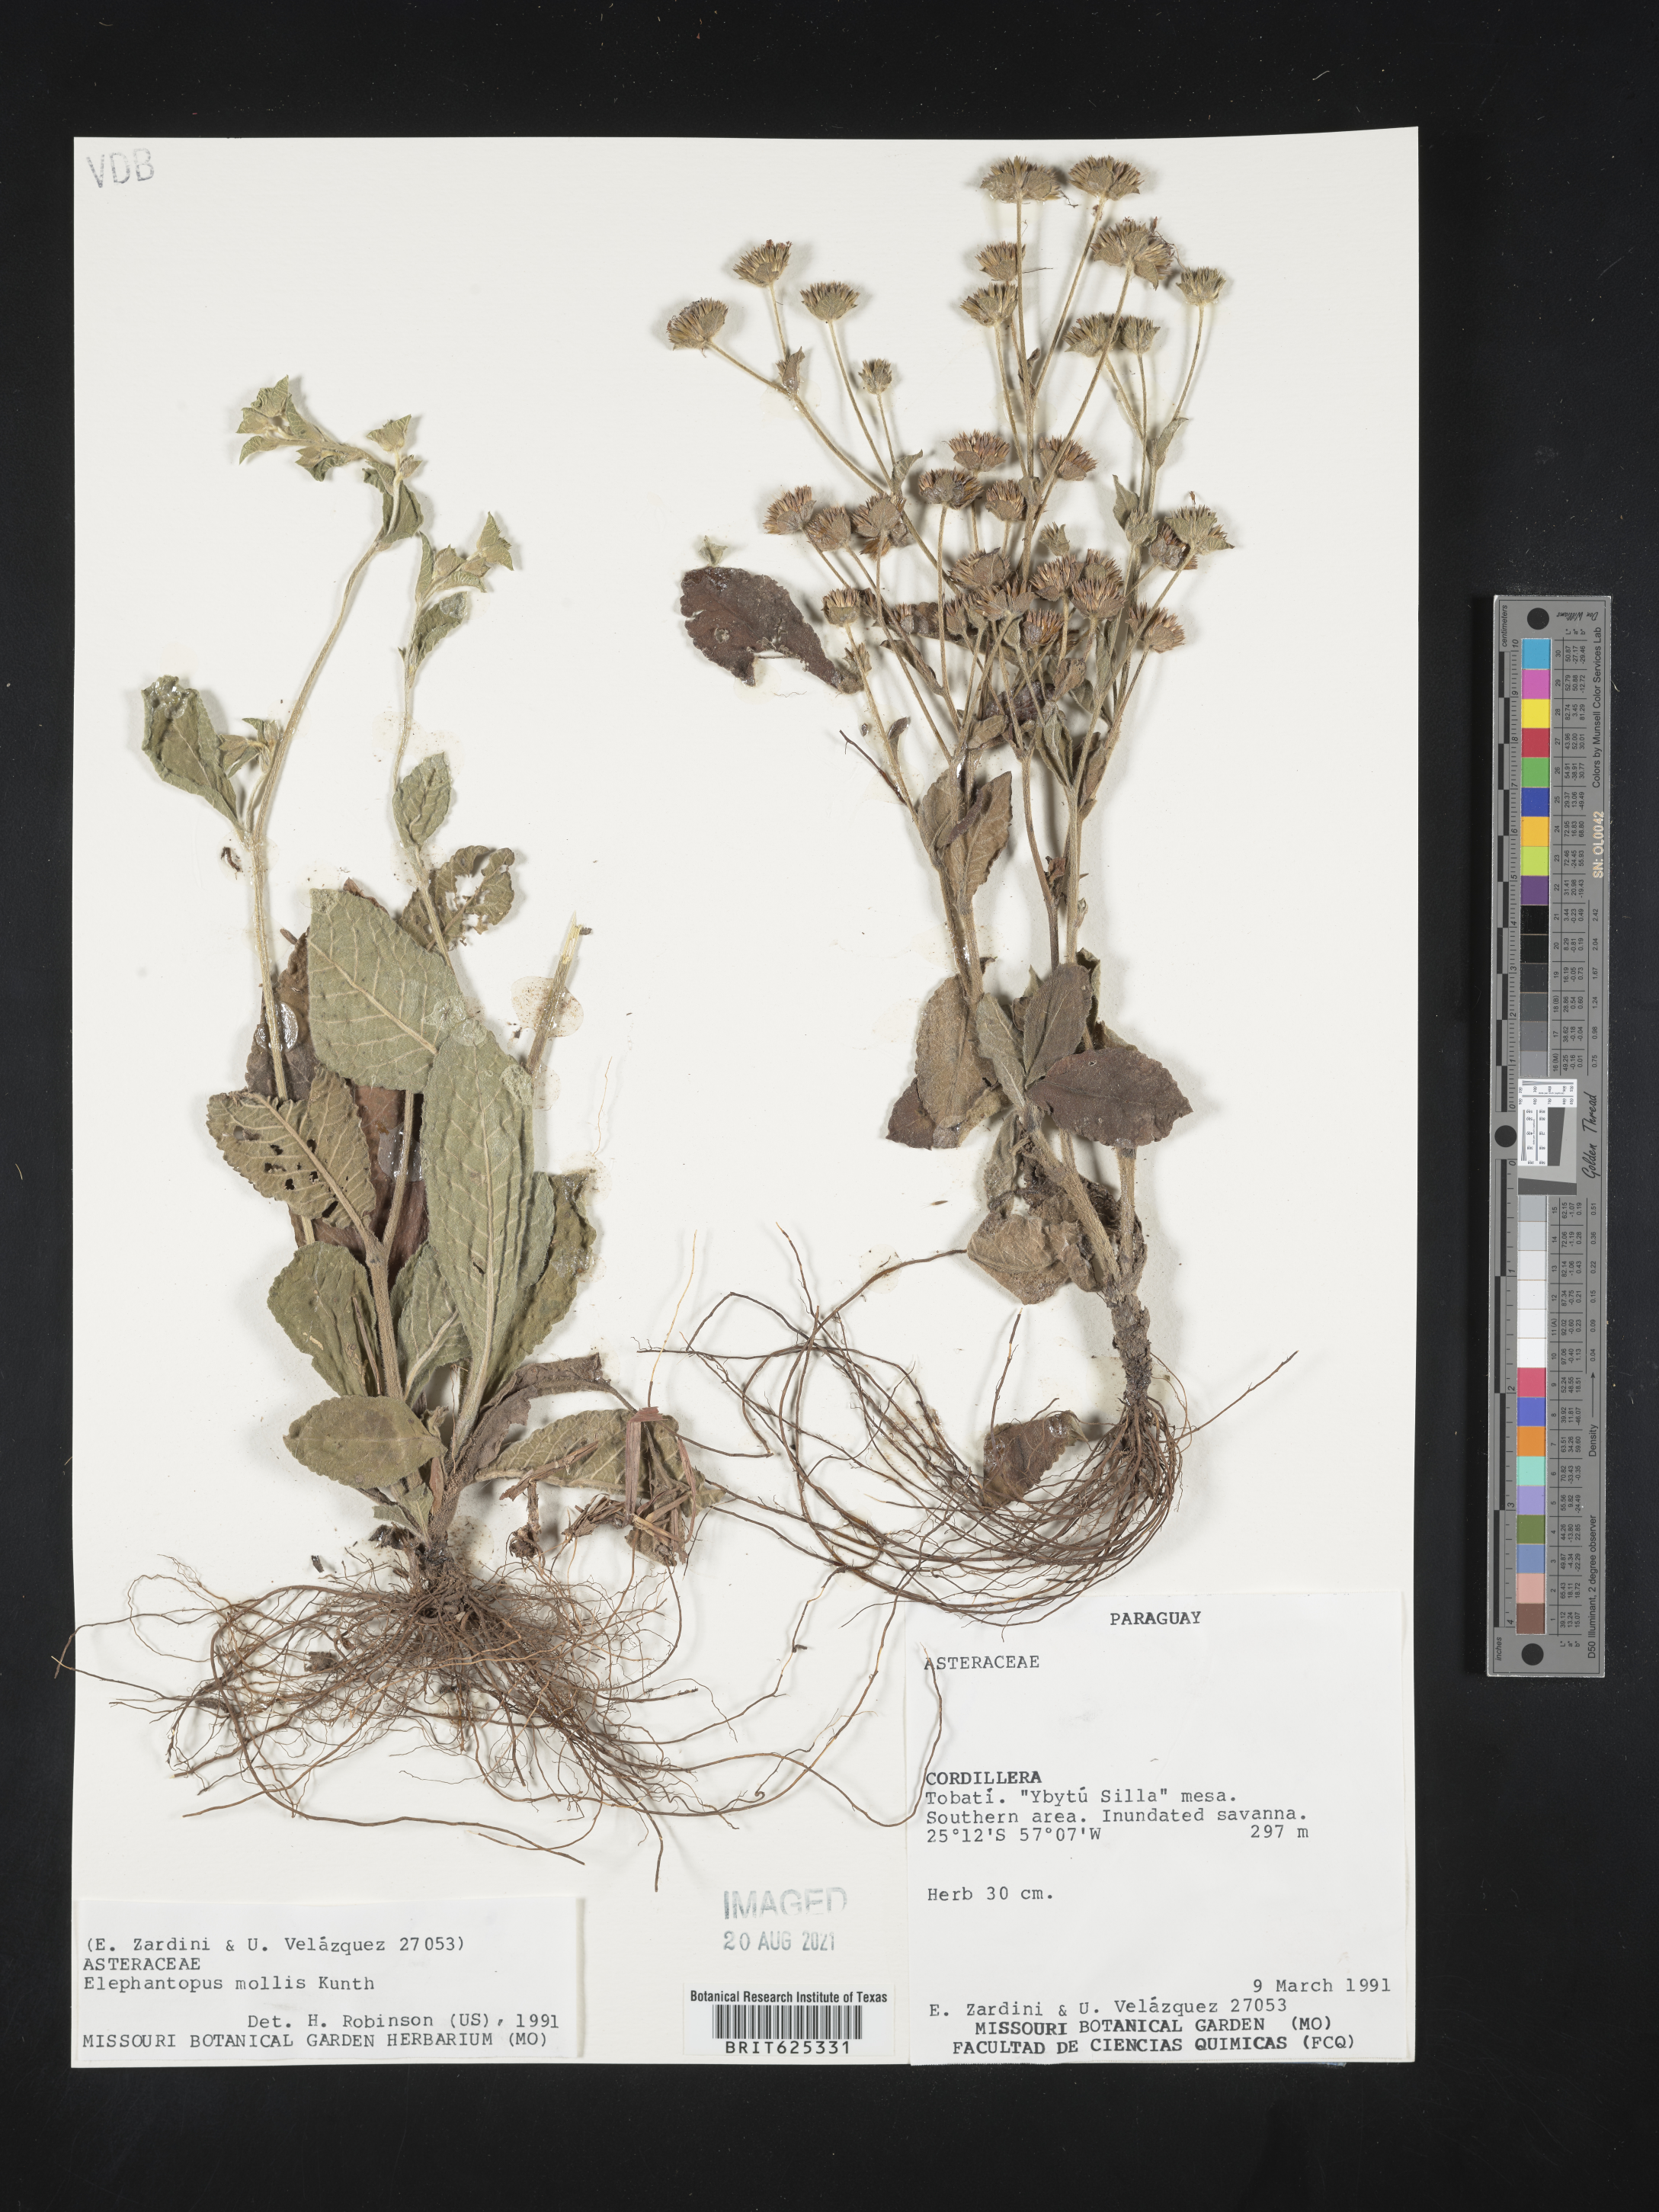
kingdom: Plantae
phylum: Tracheophyta
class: Magnoliopsida
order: Asterales
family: Asteraceae
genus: Elephantopus
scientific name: Elephantopus mollis
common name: Soft elephantsfoot
